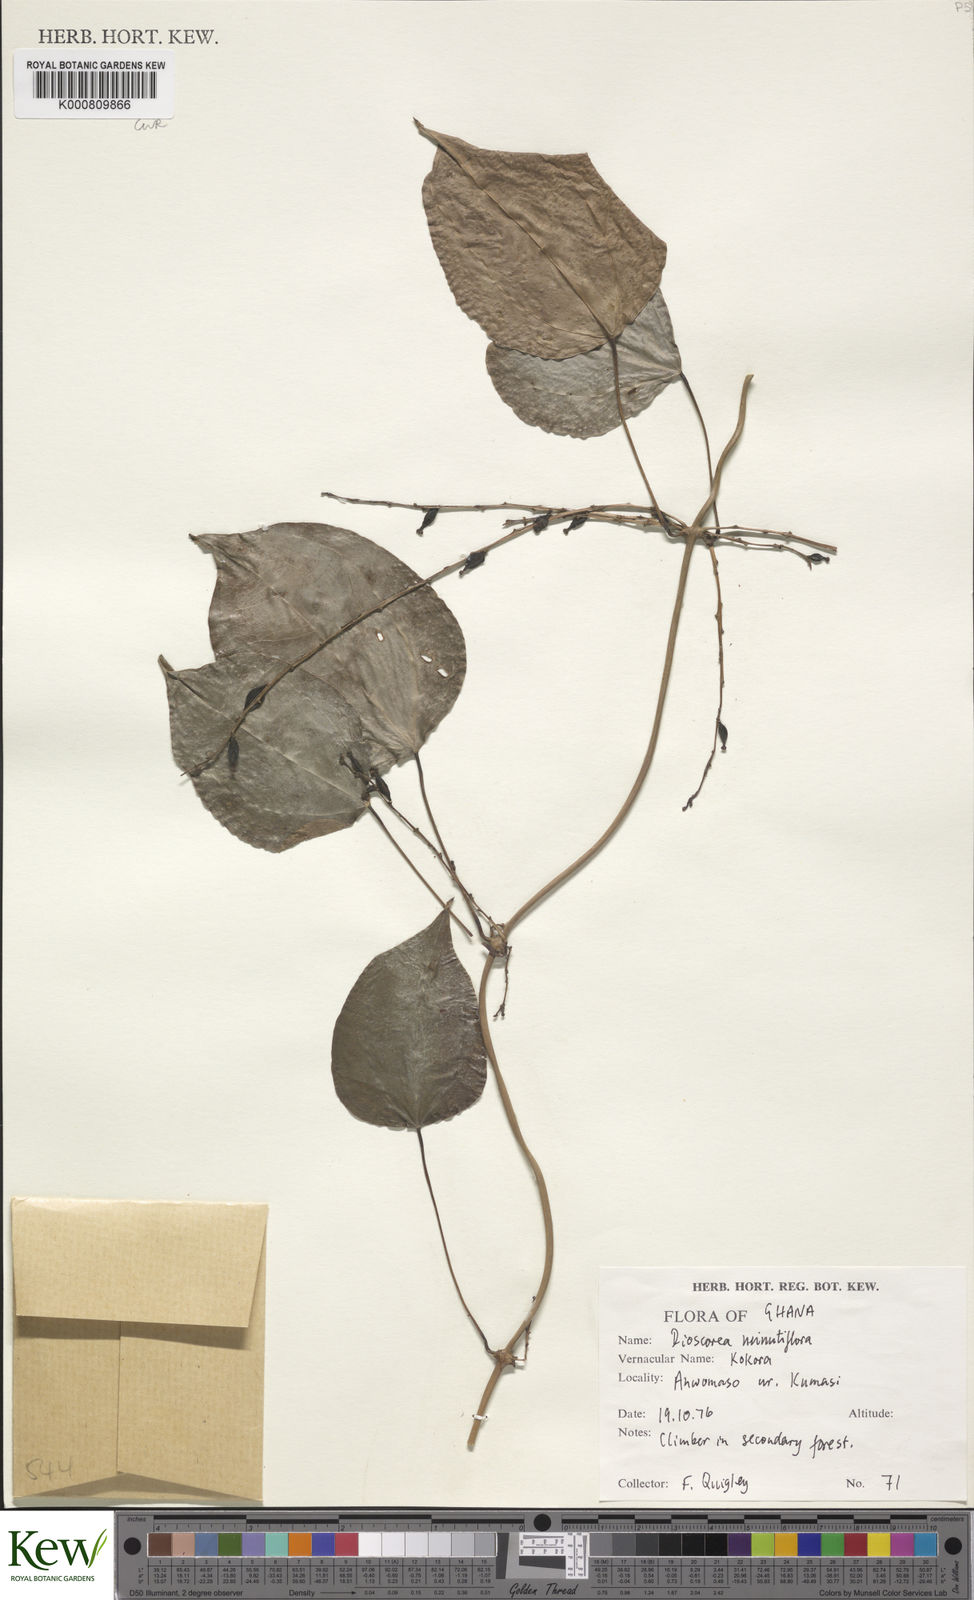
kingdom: Plantae
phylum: Tracheophyta
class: Liliopsida
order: Dioscoreales
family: Dioscoreaceae
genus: Dioscorea
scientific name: Dioscorea minutiflora
